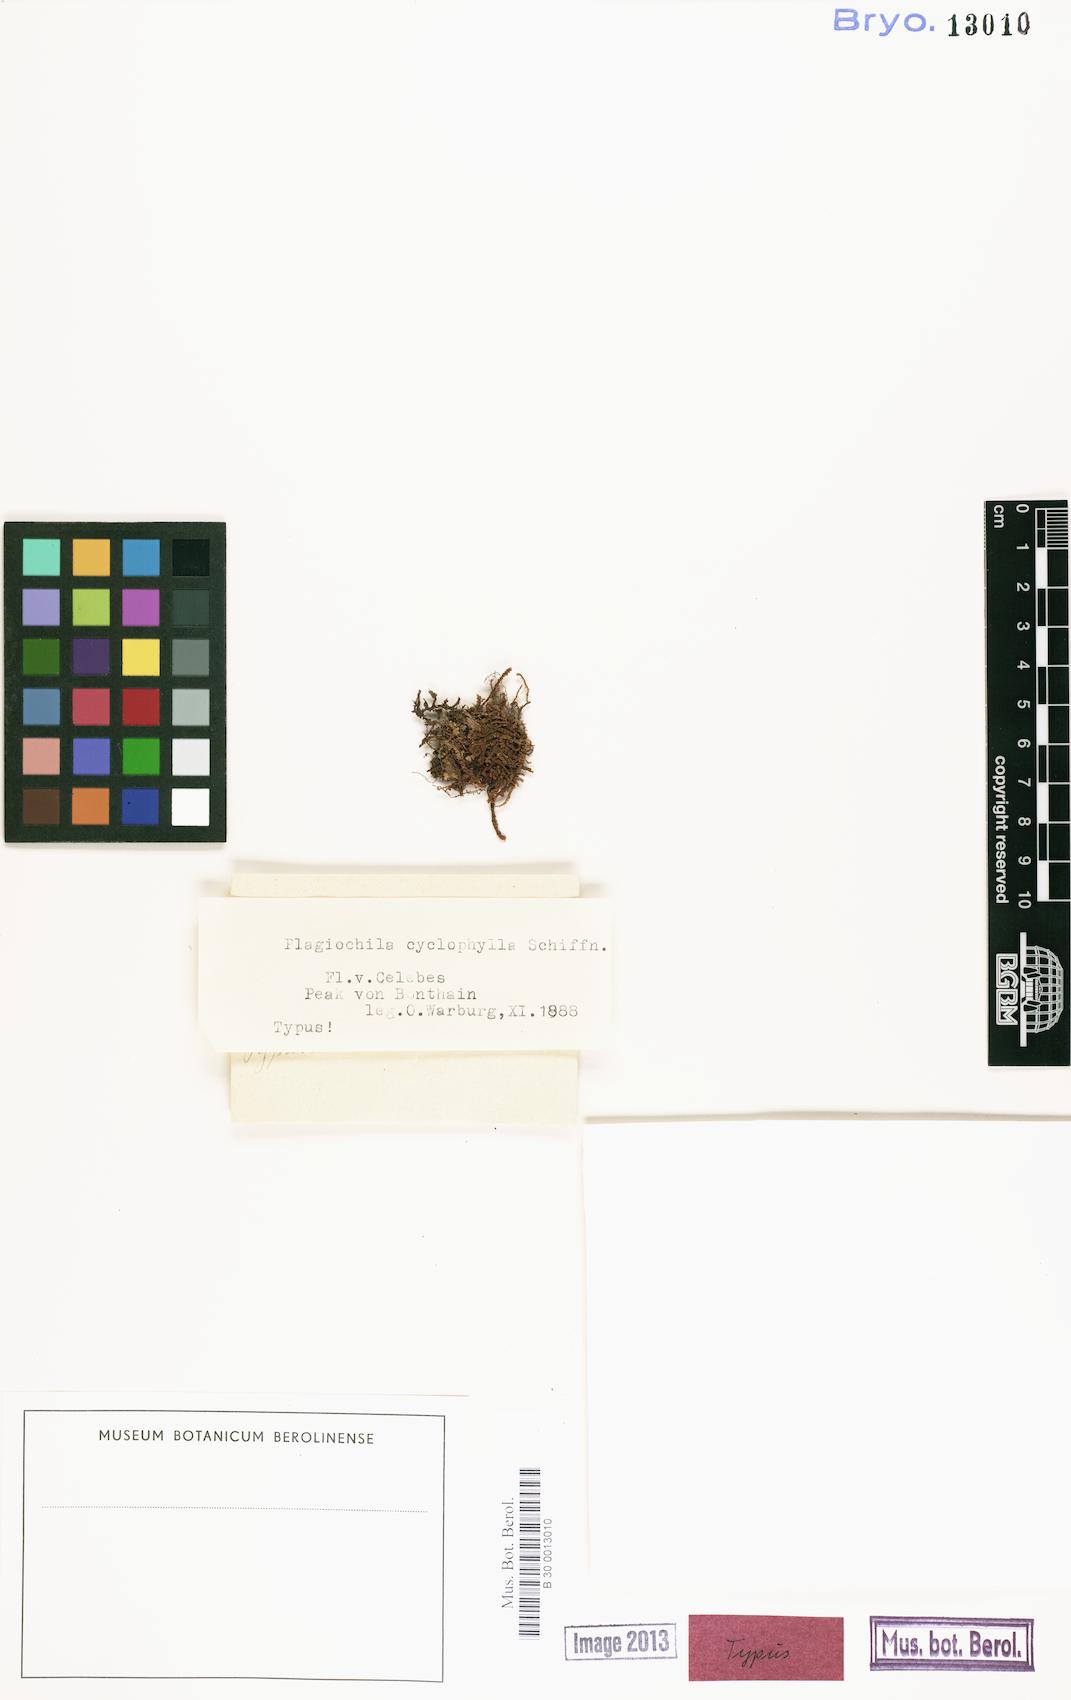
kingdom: Plantae
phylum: Marchantiophyta
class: Jungermanniopsida
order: Jungermanniales
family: Plagiochilaceae
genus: Plagiochila
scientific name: Plagiochila renitens
